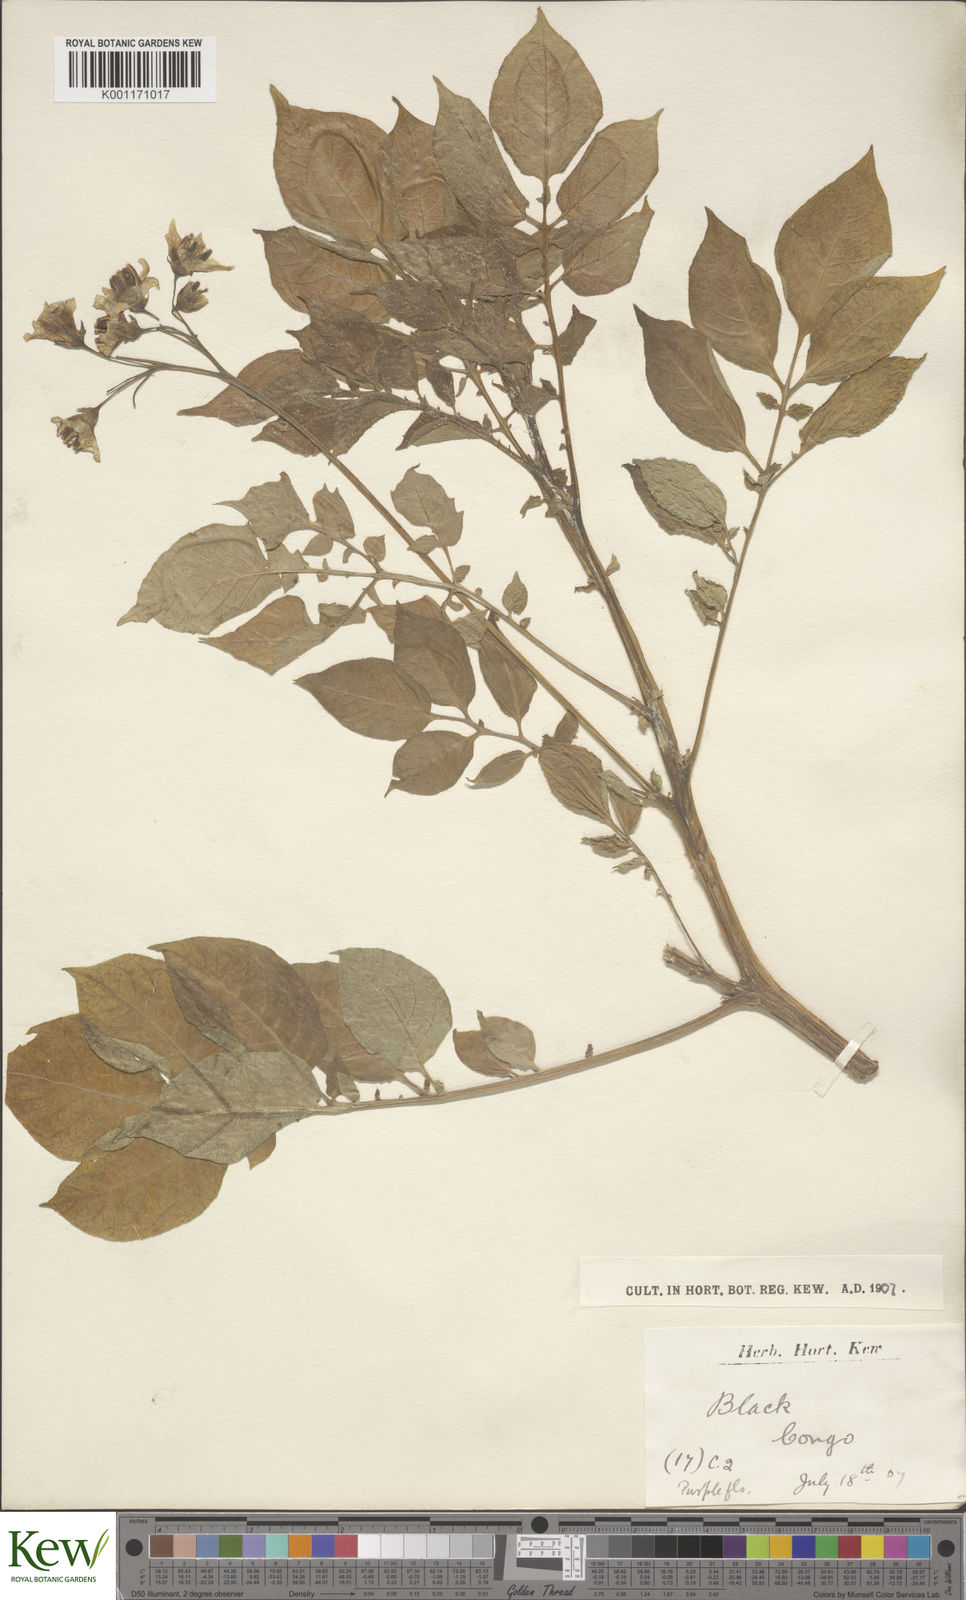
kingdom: Plantae
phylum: Tracheophyta
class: Magnoliopsida
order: Solanales
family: Solanaceae
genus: Solanum
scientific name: Solanum
